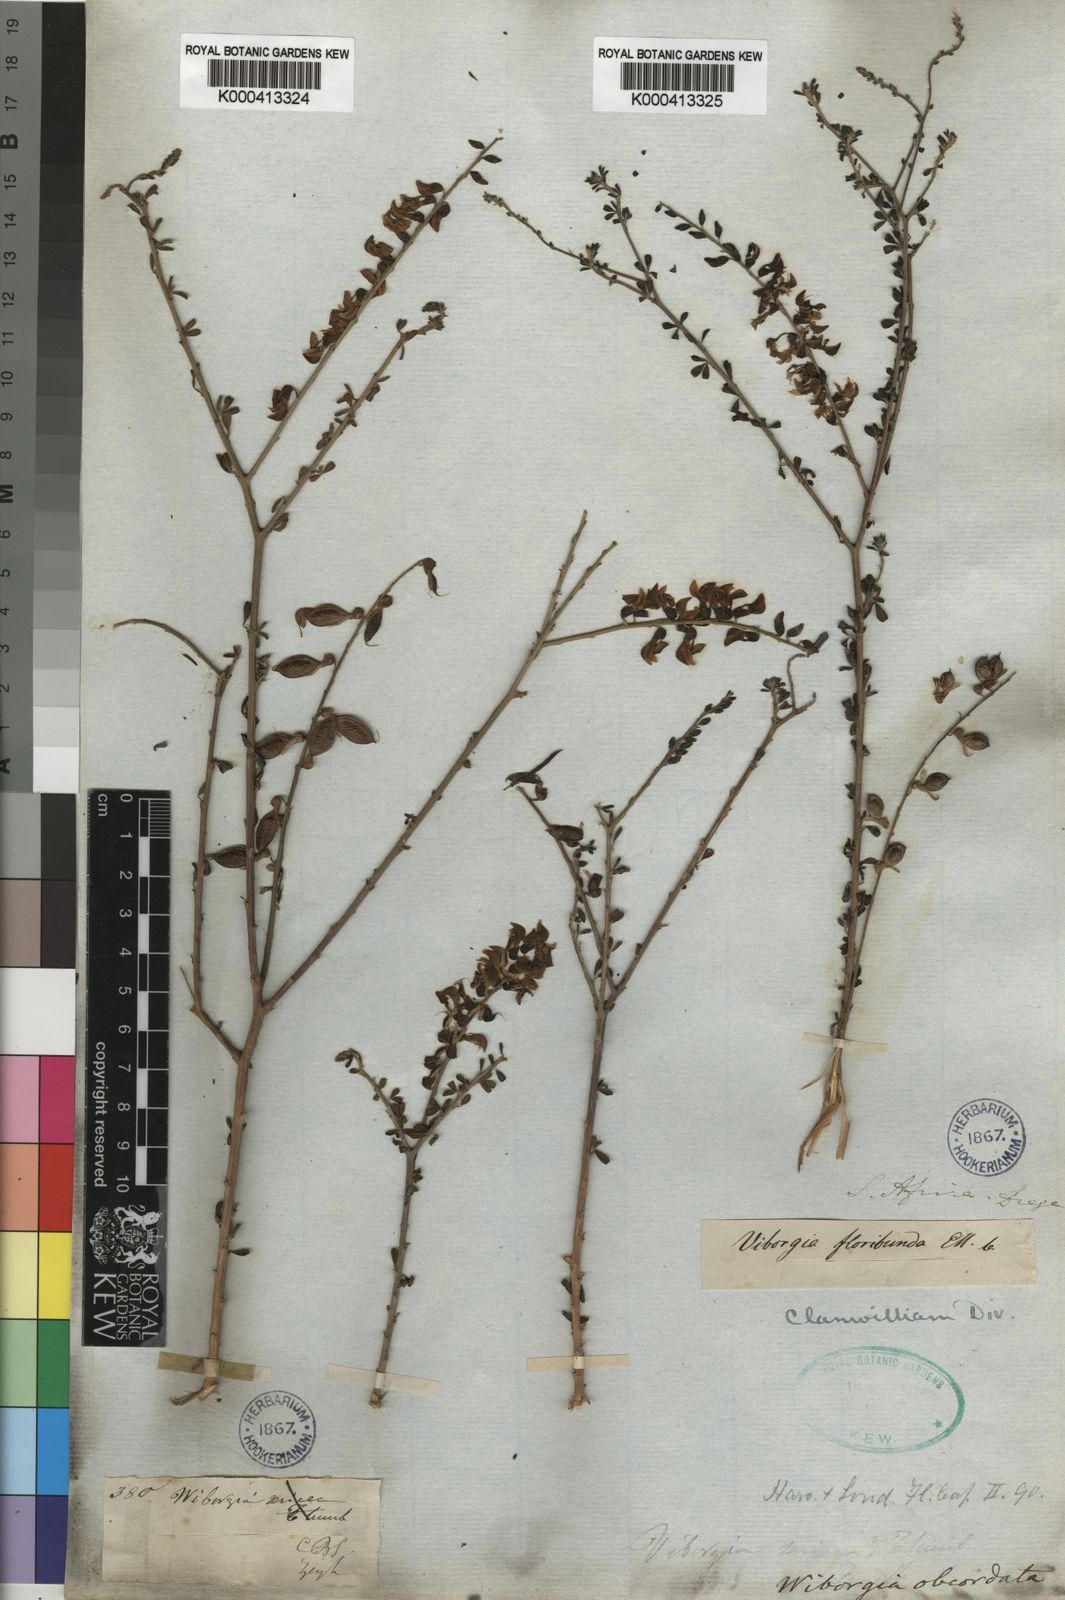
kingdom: Plantae
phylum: Tracheophyta
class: Magnoliopsida
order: Fabales
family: Fabaceae
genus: Wiborgia
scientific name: Wiborgia obcordata
